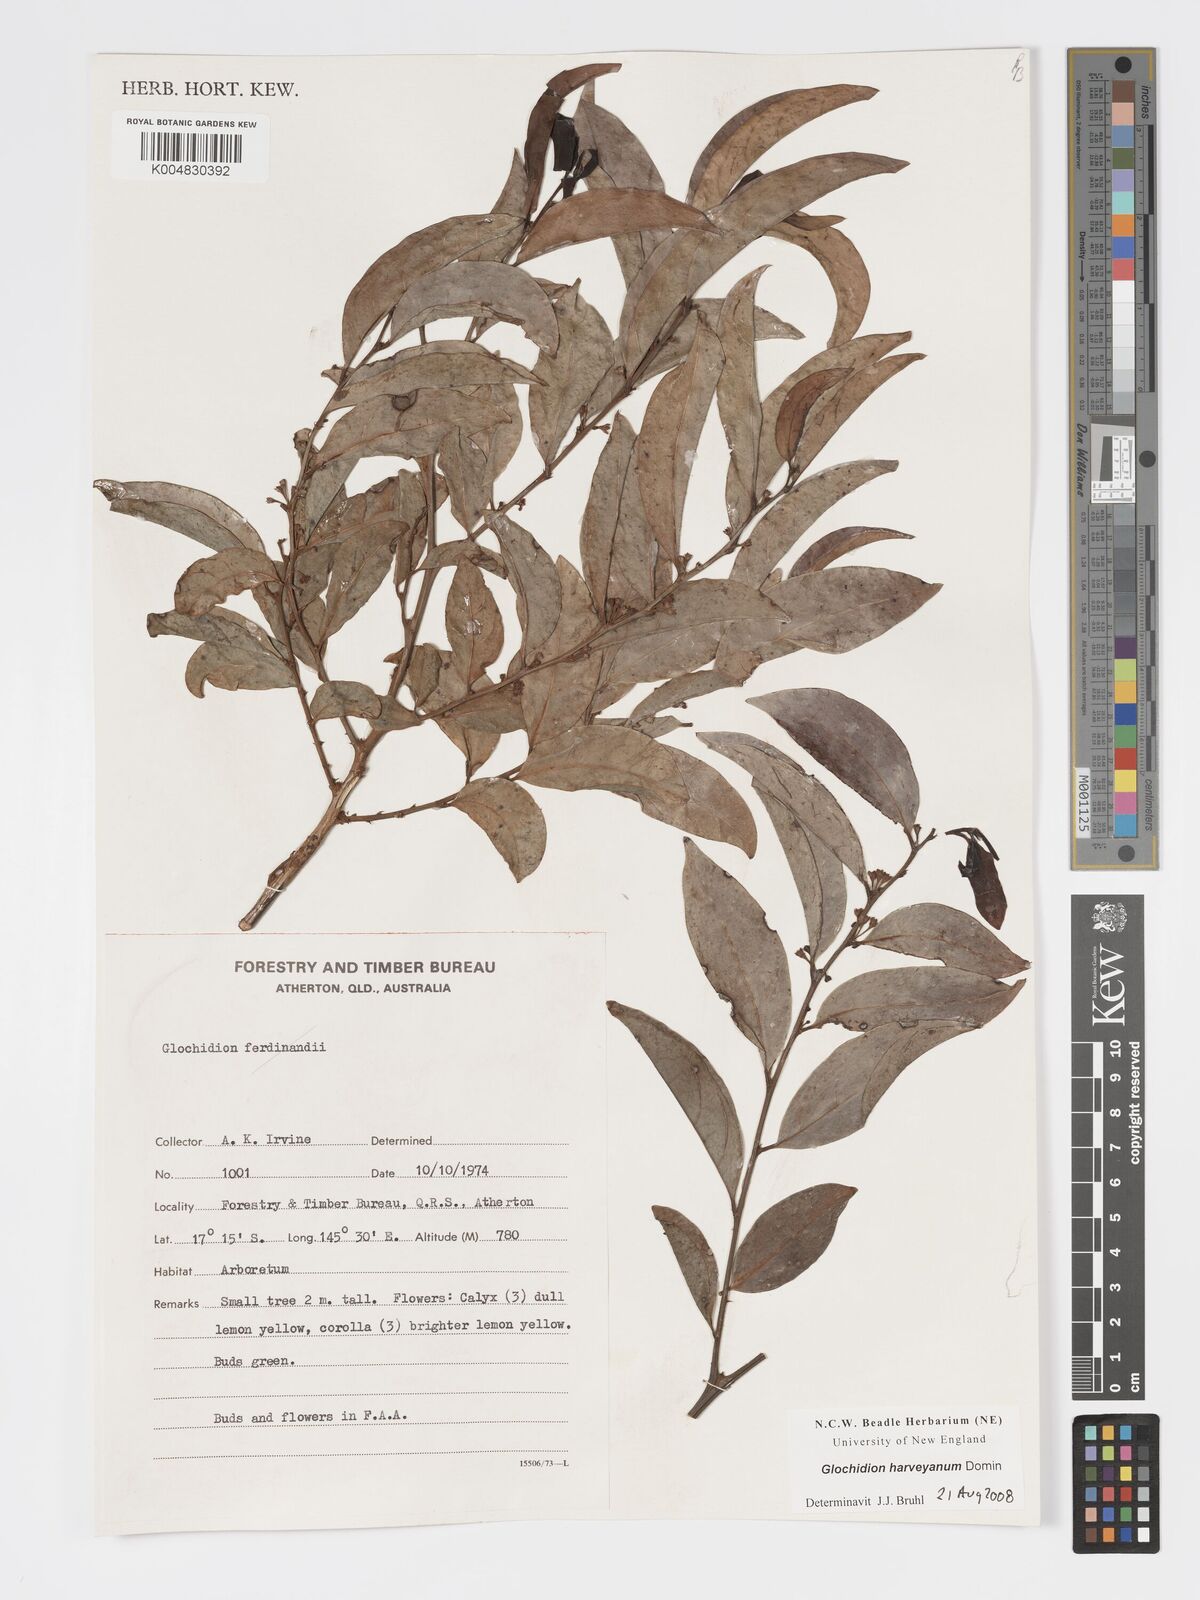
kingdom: Plantae
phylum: Tracheophyta
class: Magnoliopsida
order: Malpighiales
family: Phyllanthaceae
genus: Glochidion
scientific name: Glochidion harveyanum
